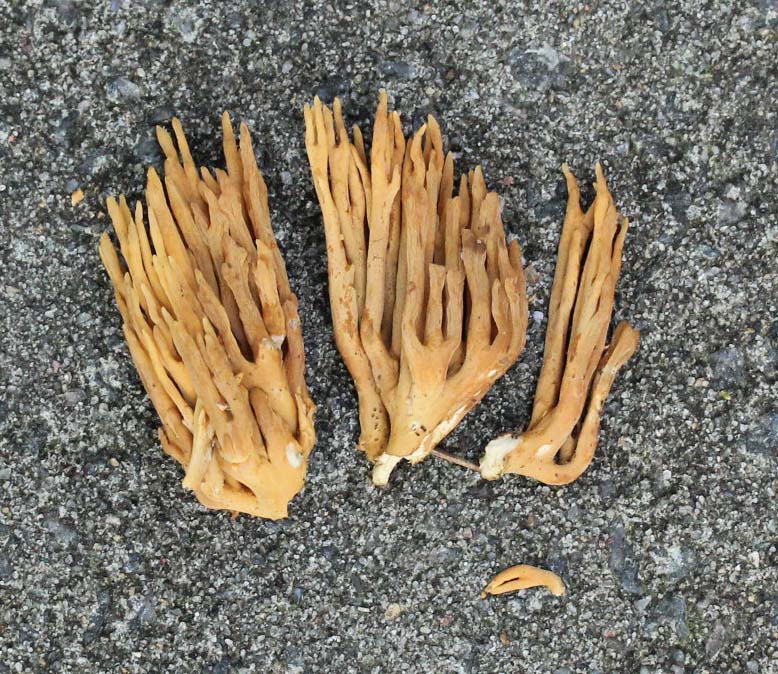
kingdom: Fungi
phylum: Basidiomycota
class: Agaricomycetes
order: Gomphales
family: Gomphaceae
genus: Phaeoclavulina
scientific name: Phaeoclavulina eumorpha
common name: gran-koralsvamp
